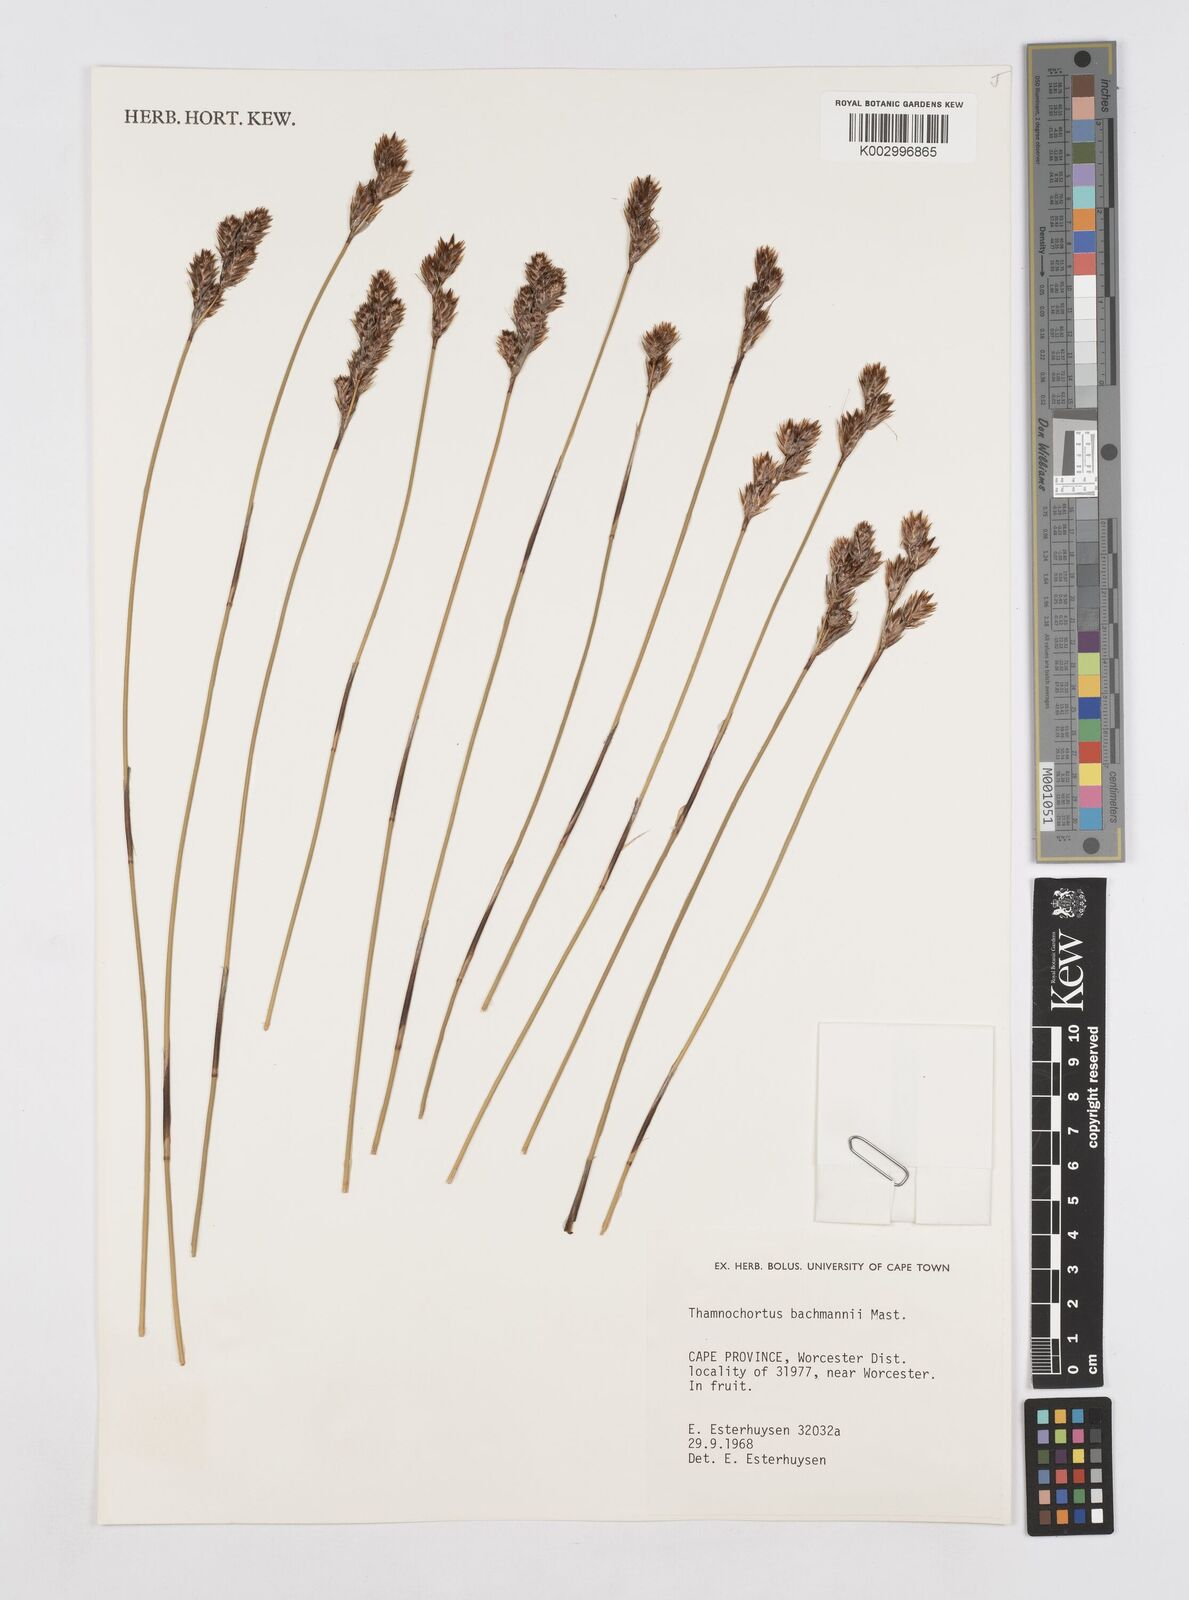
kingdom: Plantae
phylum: Tracheophyta
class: Liliopsida
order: Poales
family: Restionaceae
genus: Thamnochortus
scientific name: Thamnochortus bachmannii
